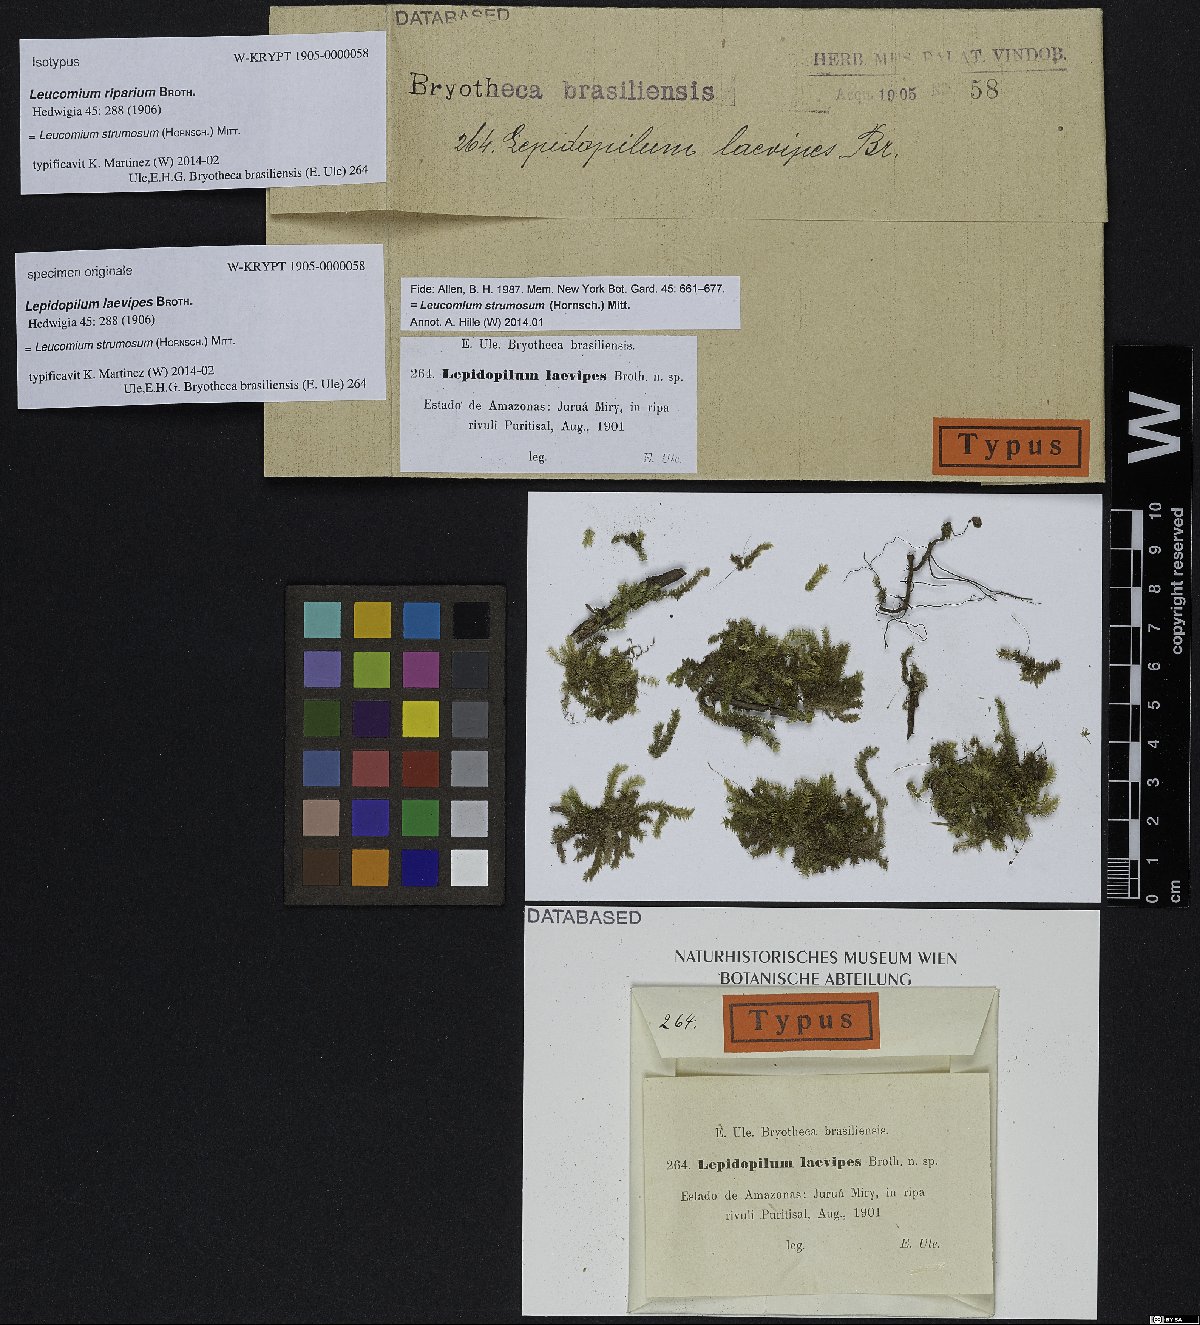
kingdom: Plantae
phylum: Bryophyta
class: Bryopsida
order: Hookeriales
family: Leucomiaceae
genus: Leucomium
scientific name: Leucomium strumosum
